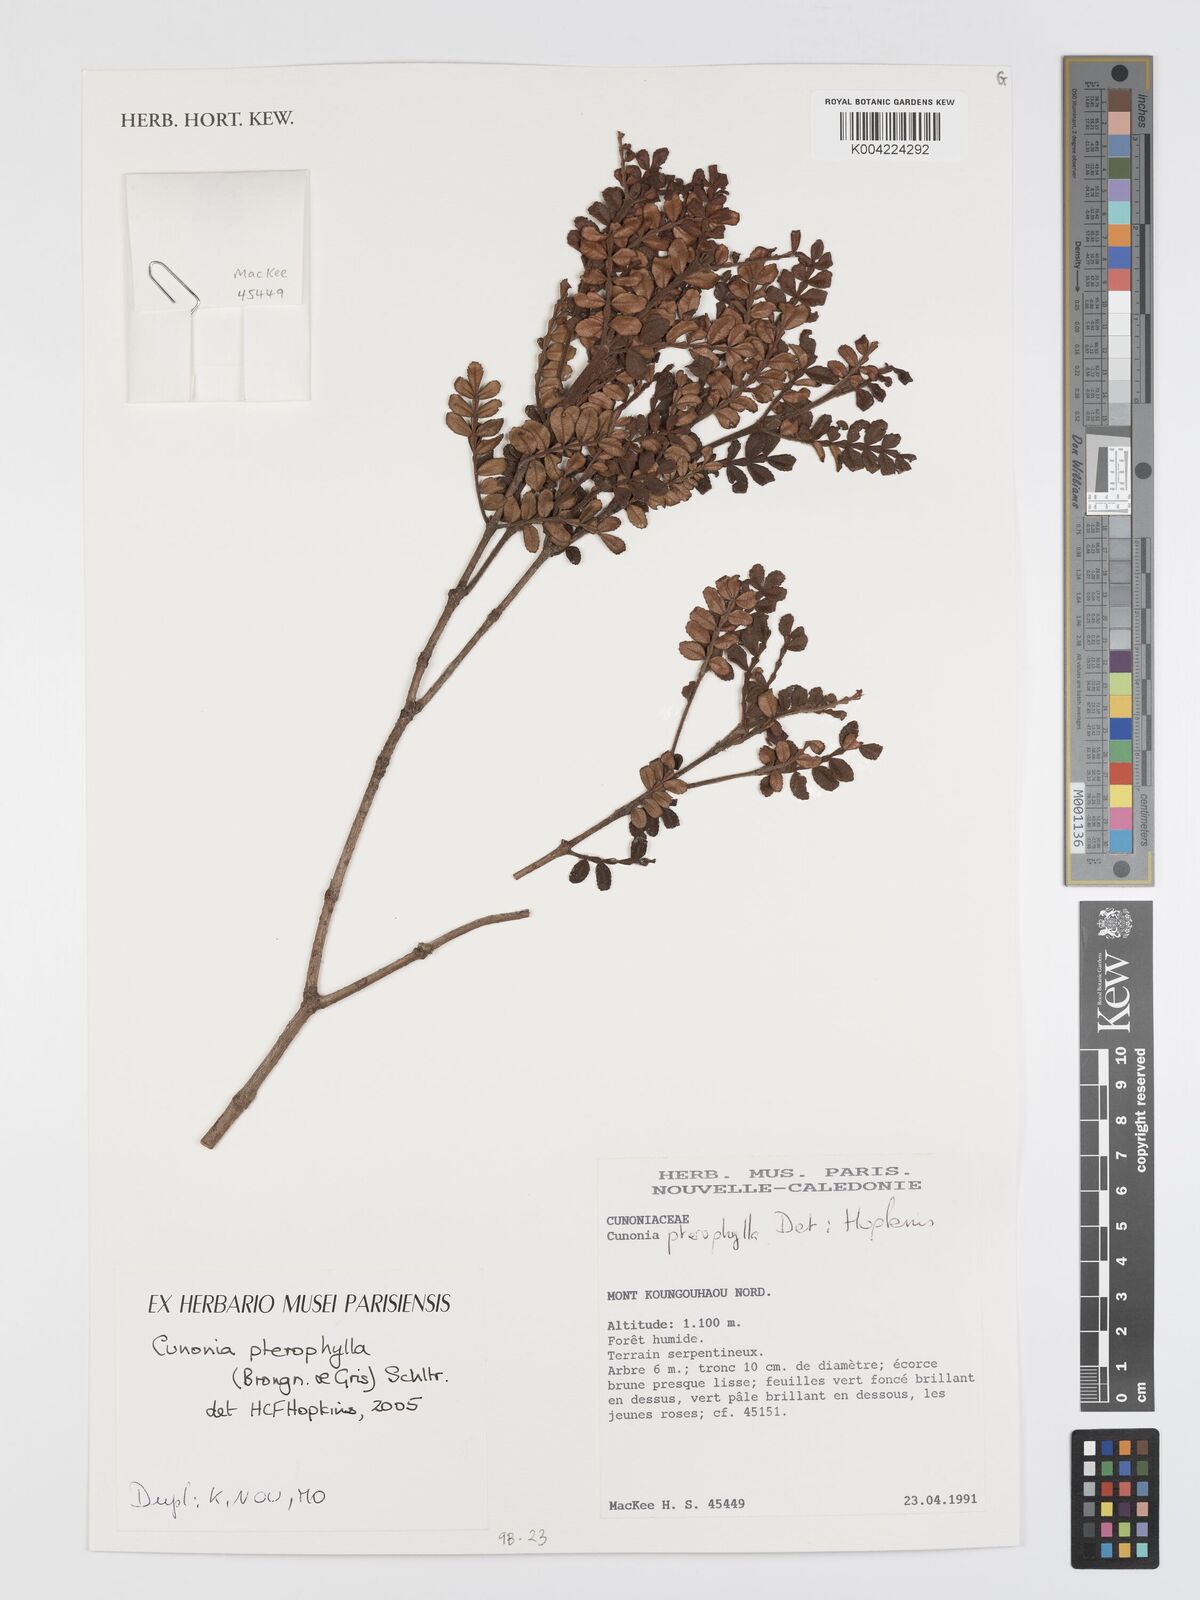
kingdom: Plantae
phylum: Tracheophyta
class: Magnoliopsida
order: Oxalidales
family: Cunoniaceae
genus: Cunonia
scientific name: Cunonia pterophylla
